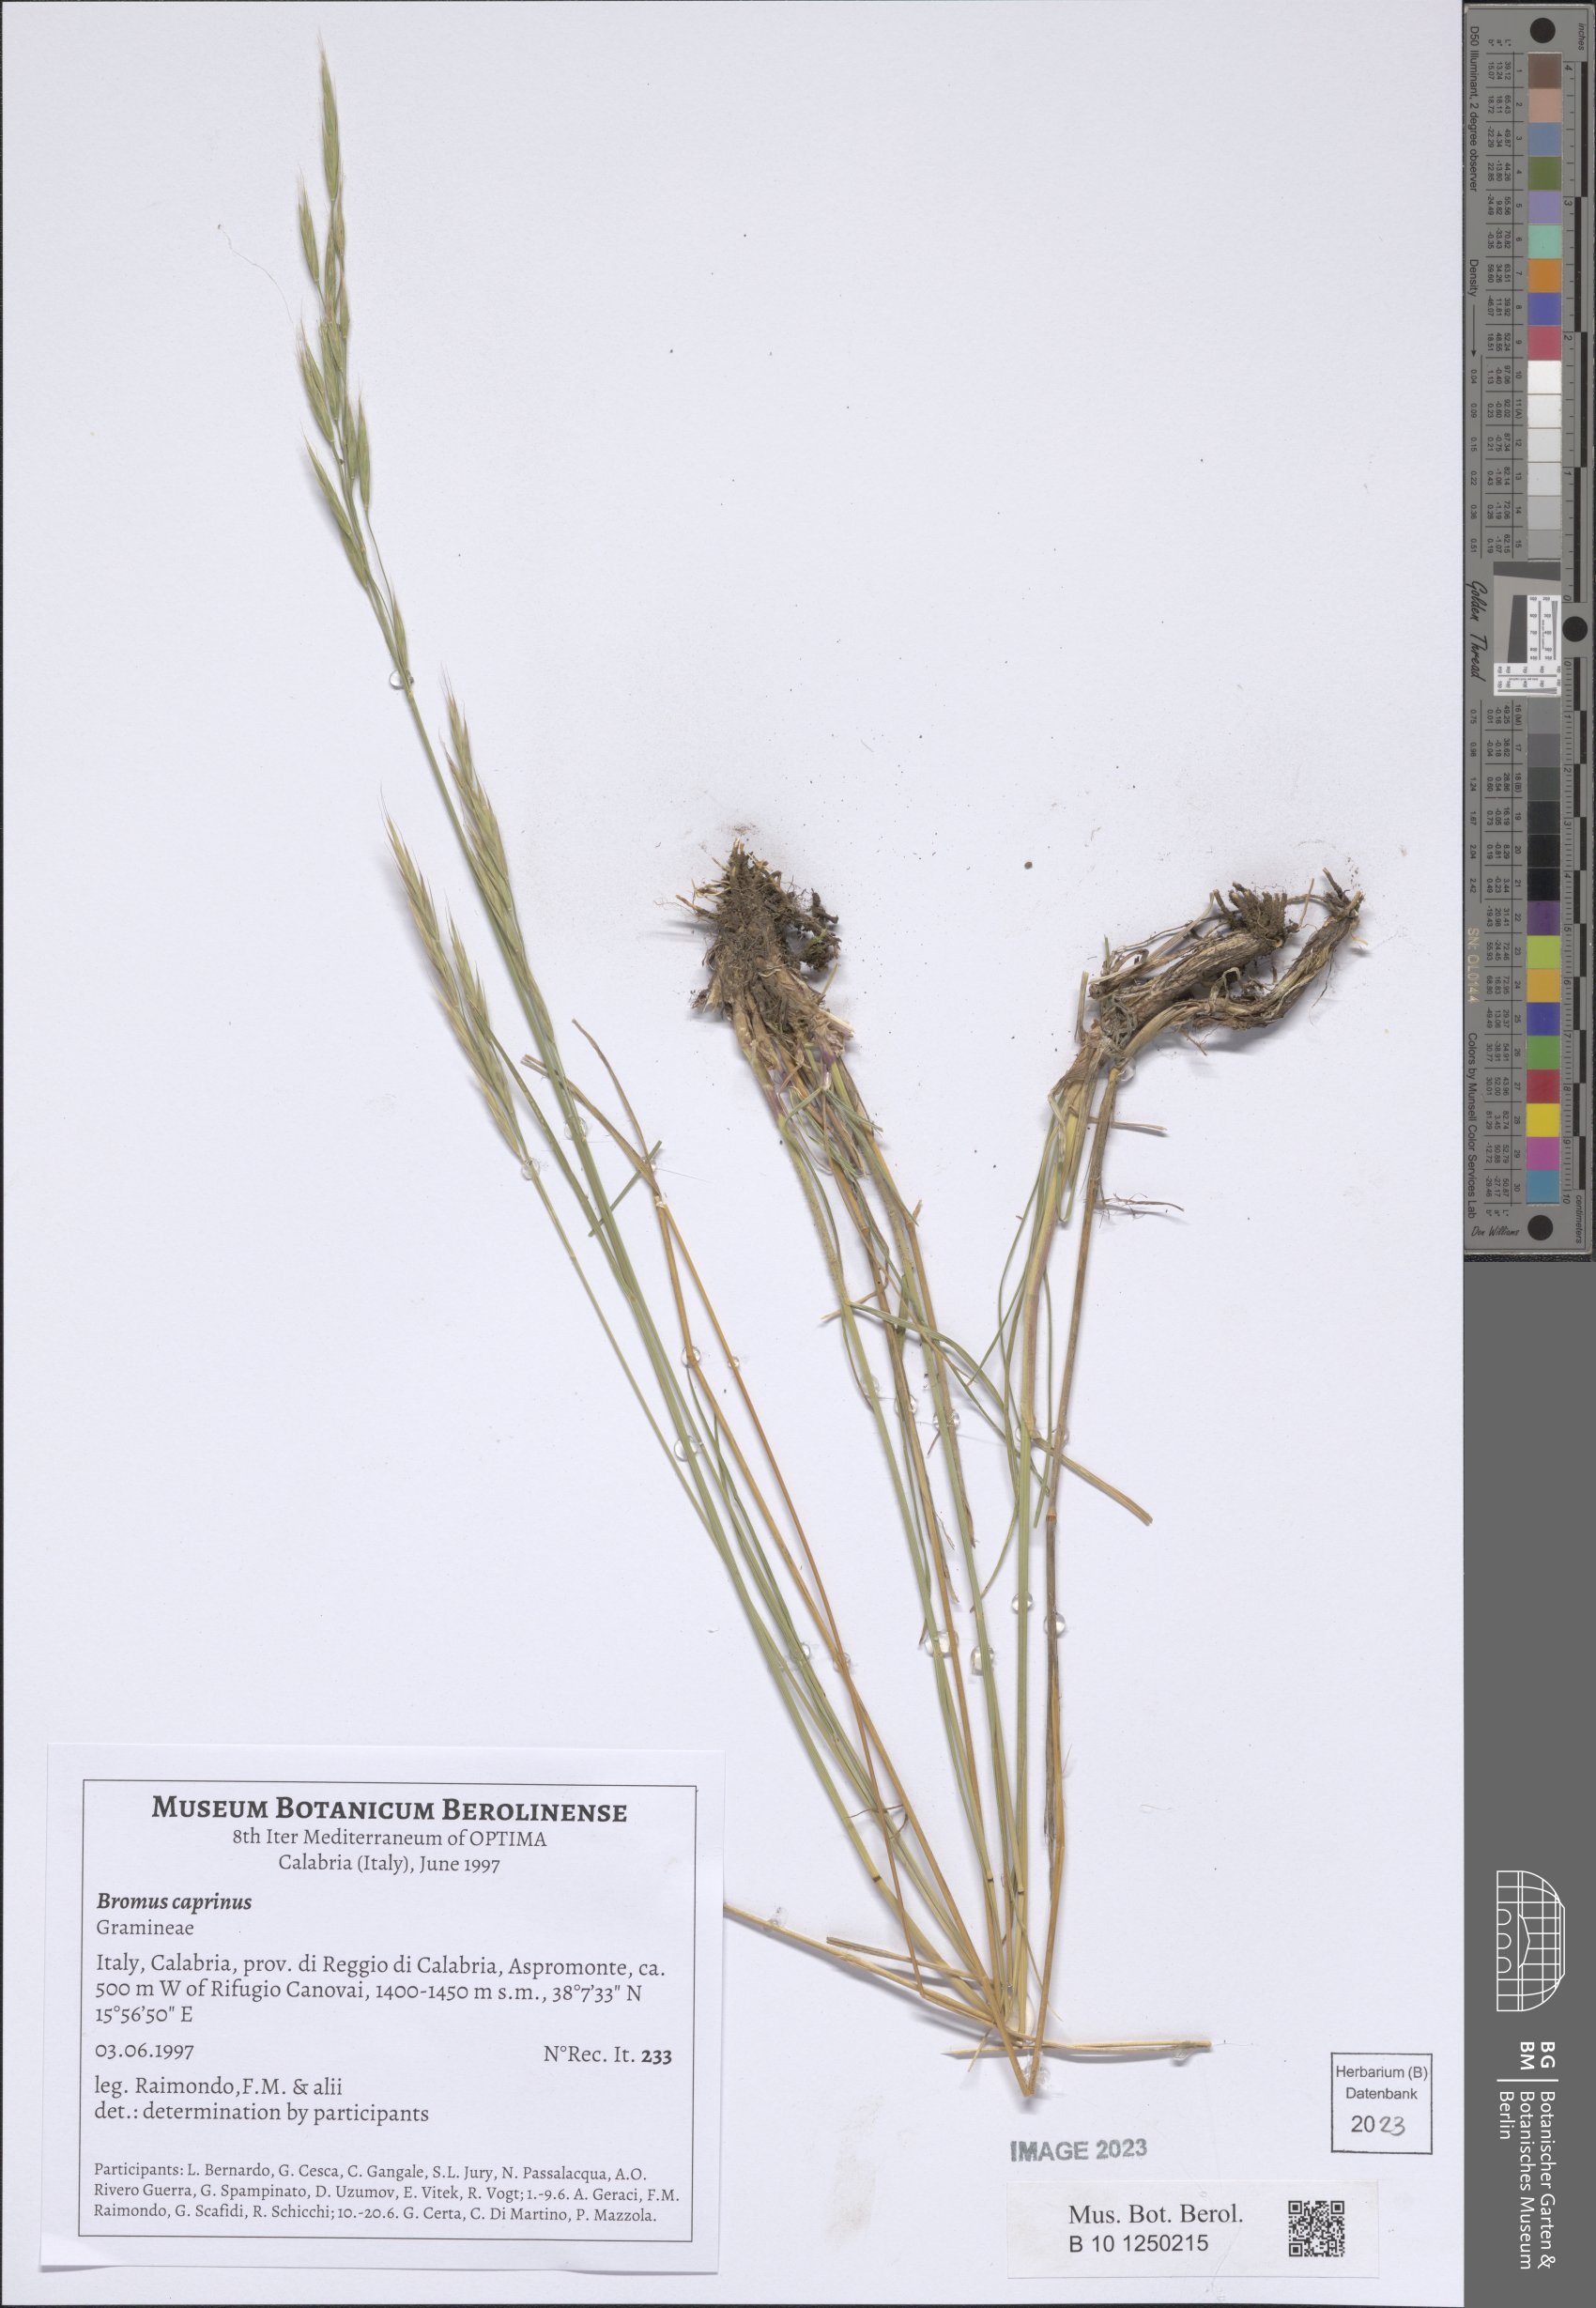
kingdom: Plantae
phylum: Tracheophyta
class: Liliopsida
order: Poales
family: Poaceae
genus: Bromus
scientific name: Bromus erectus
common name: Erect brome
